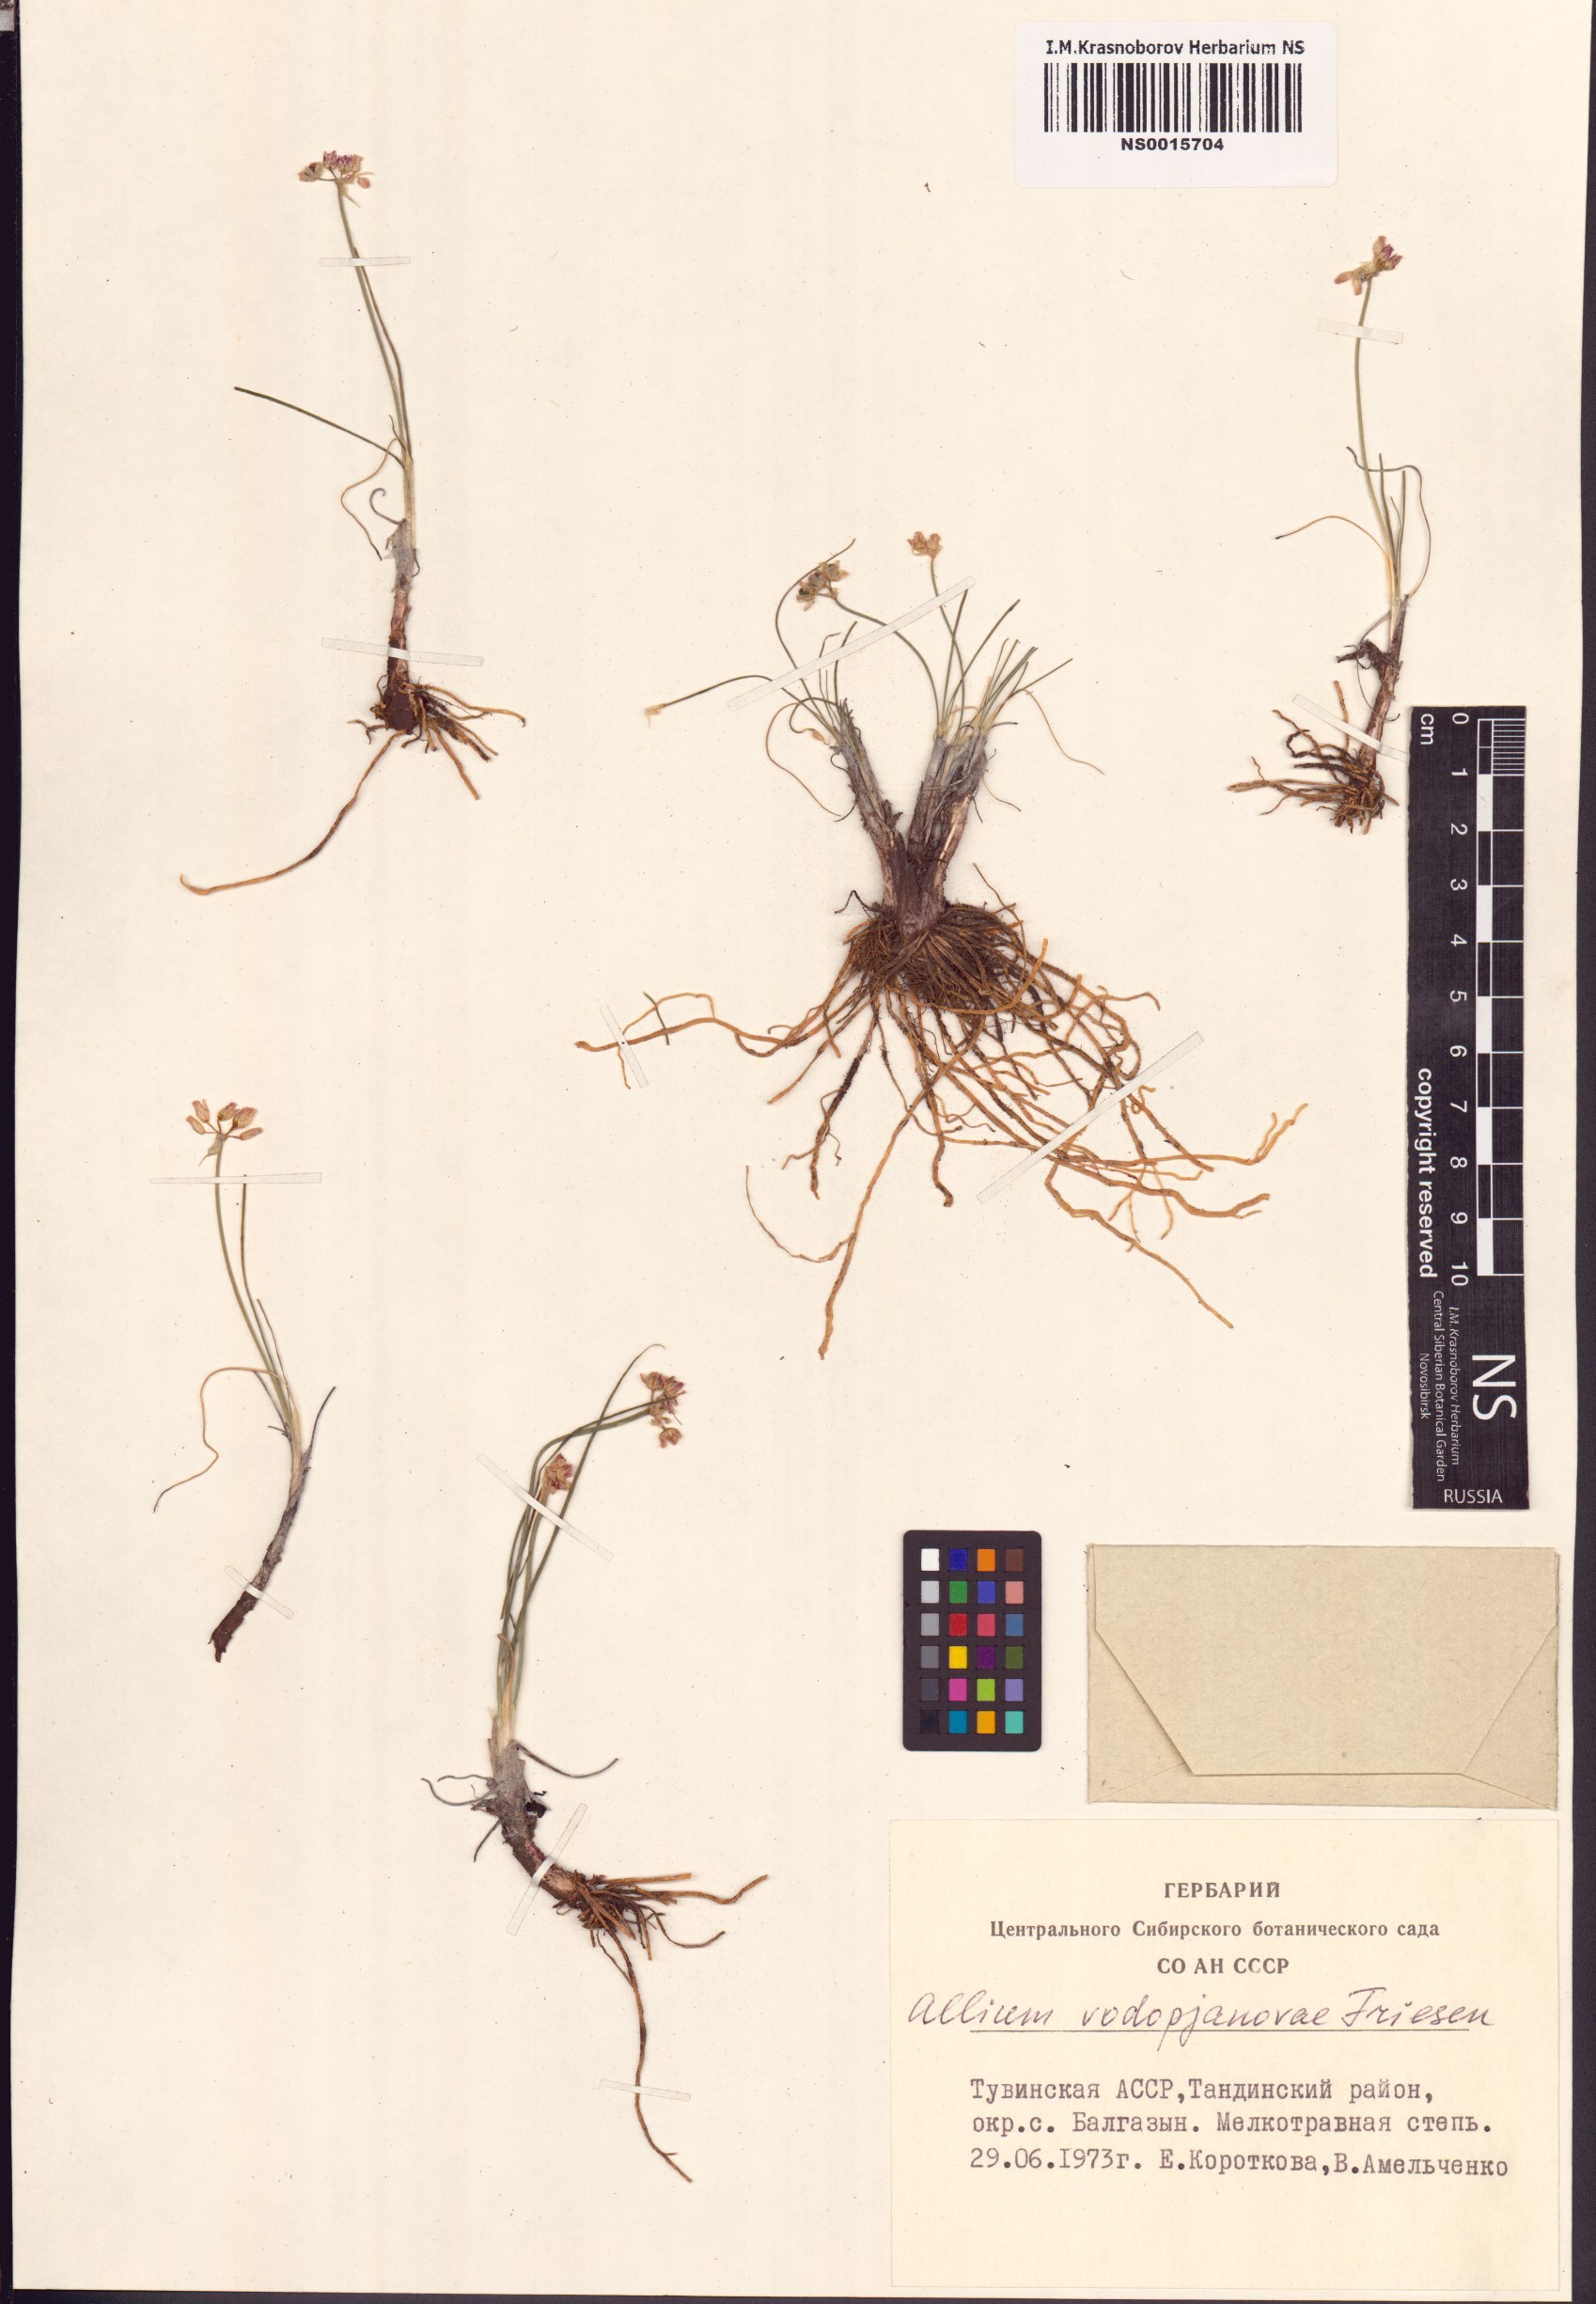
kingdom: Plantae
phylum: Tracheophyta
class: Liliopsida
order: Asparagales
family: Amaryllidaceae
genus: Allium
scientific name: Allium vodopjanovae
